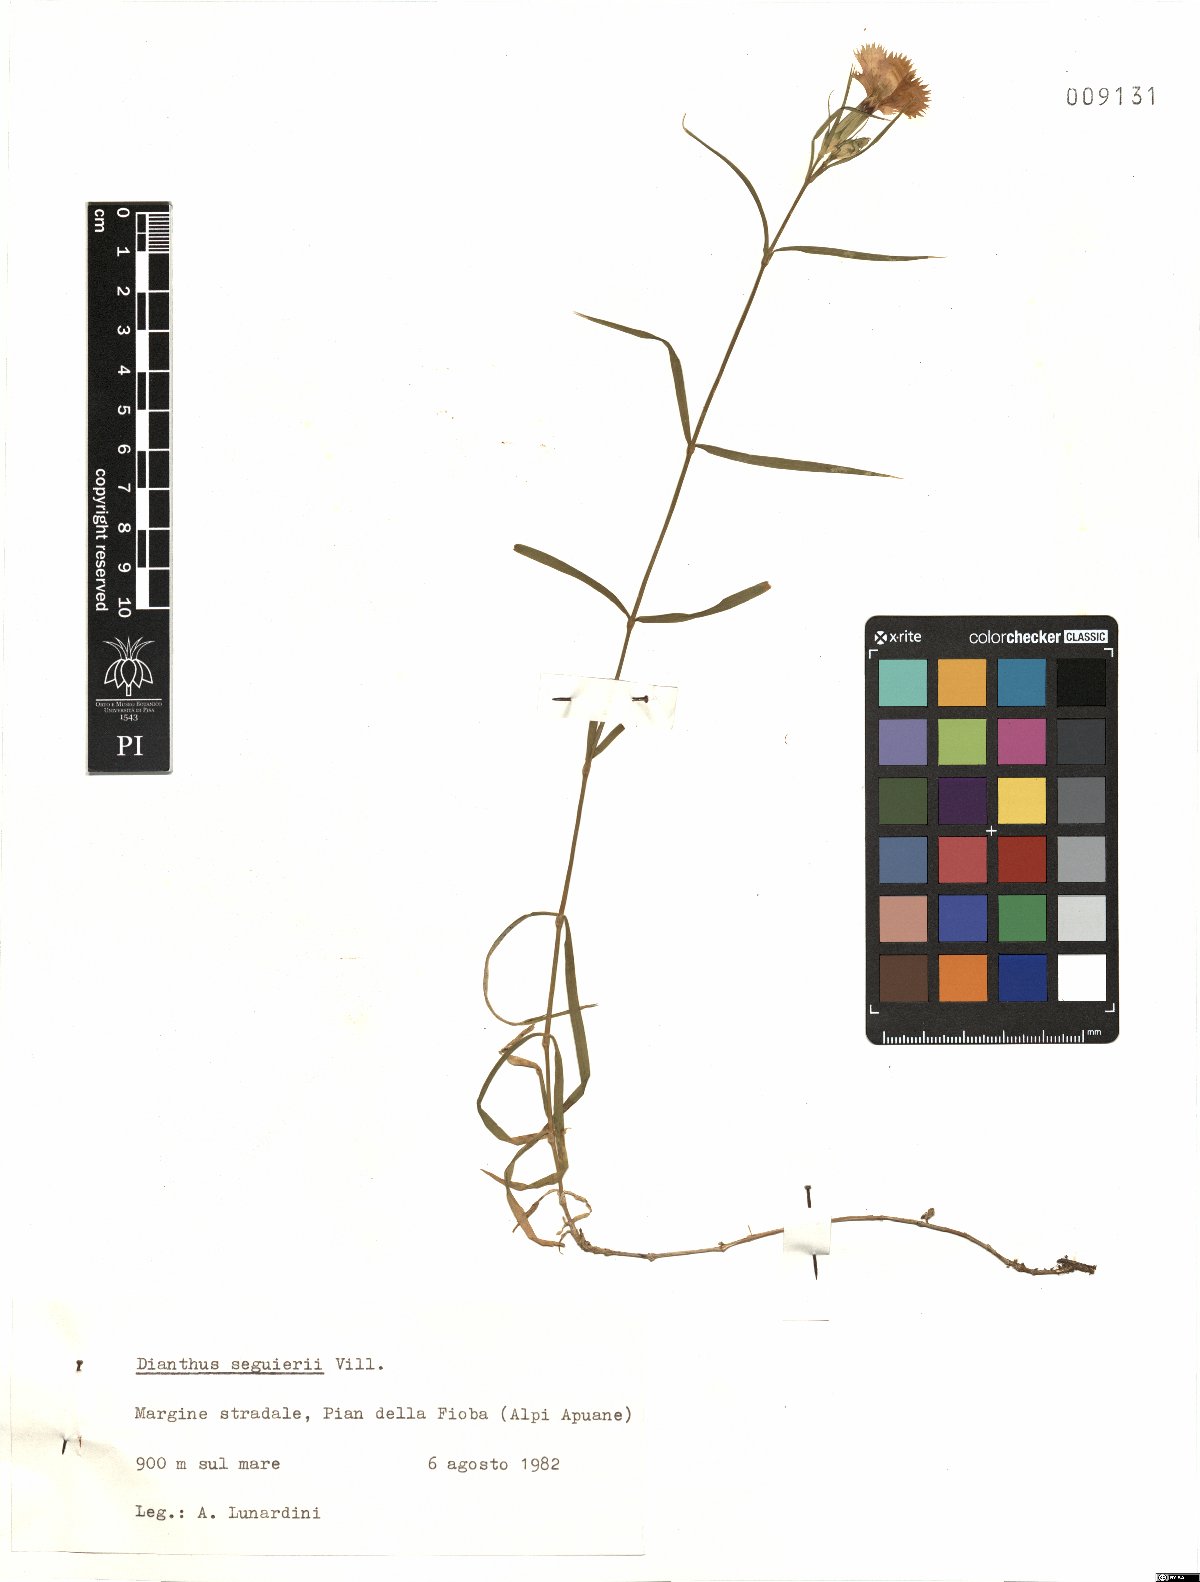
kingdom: Plantae
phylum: Tracheophyta
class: Magnoliopsida
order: Caryophyllales
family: Caryophyllaceae
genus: Dianthus
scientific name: Dianthus seguieri
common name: Ragged pink
